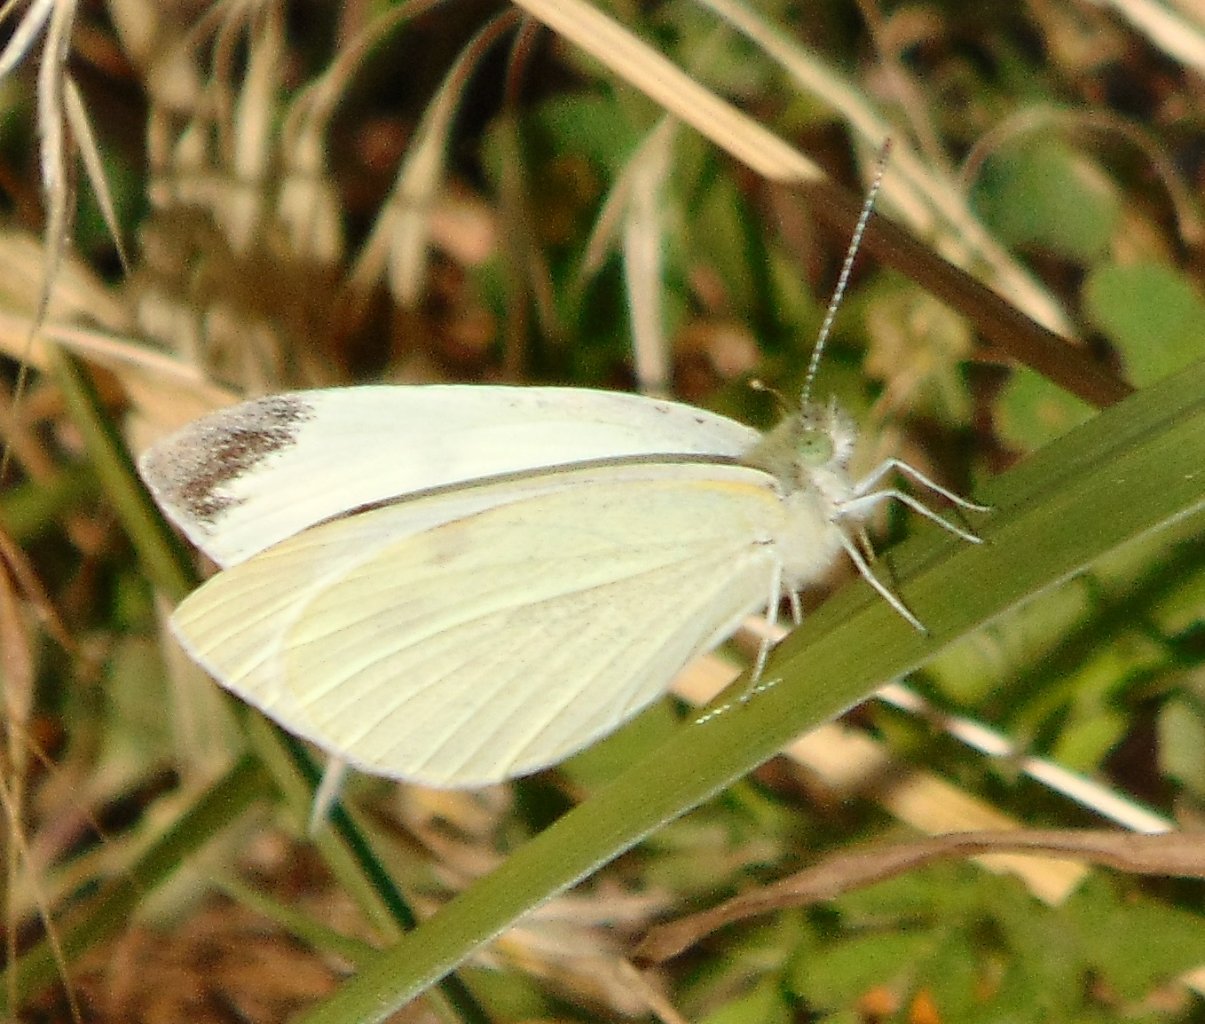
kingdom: Animalia
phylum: Arthropoda
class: Insecta
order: Lepidoptera
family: Pieridae
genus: Pieris
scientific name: Pieris rapae
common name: Cabbage White
